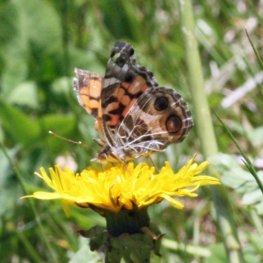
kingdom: Animalia
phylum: Arthropoda
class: Insecta
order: Lepidoptera
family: Nymphalidae
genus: Vanessa
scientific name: Vanessa virginiensis
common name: American Lady
